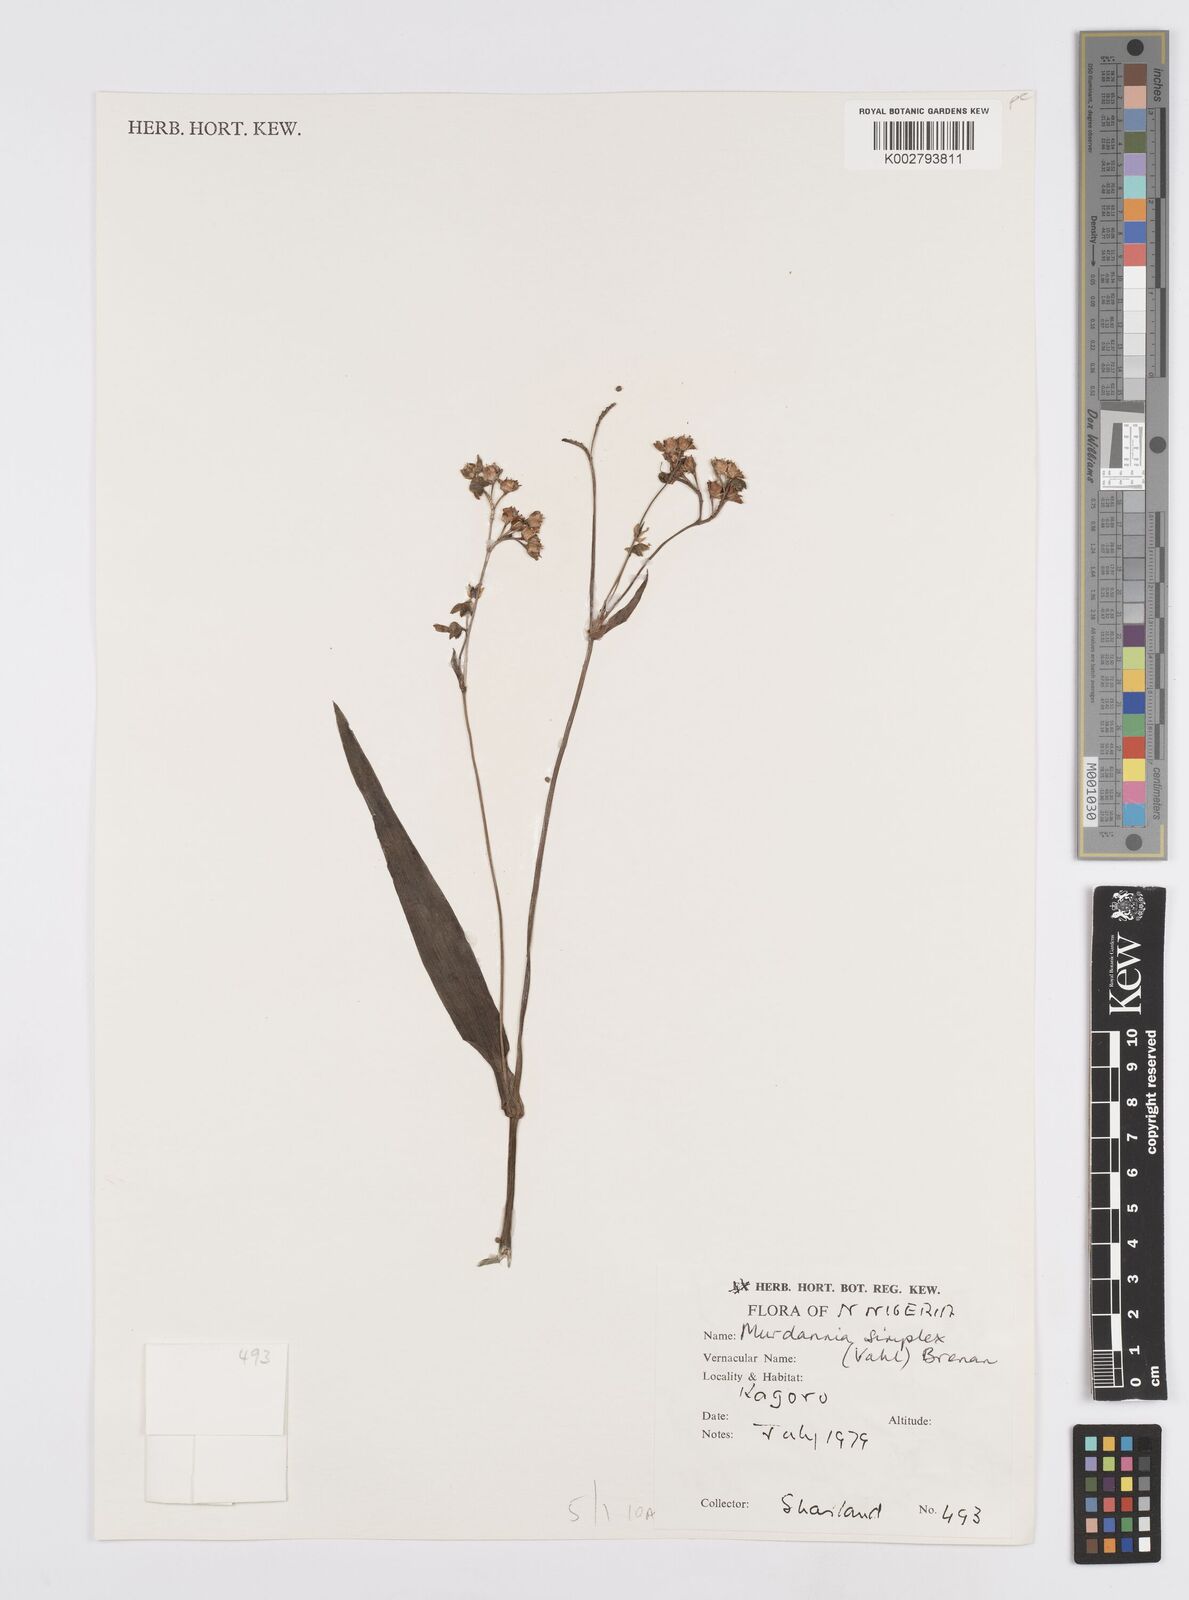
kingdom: Plantae
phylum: Tracheophyta
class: Liliopsida
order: Commelinales
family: Commelinaceae
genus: Murdannia
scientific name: Murdannia simplex
